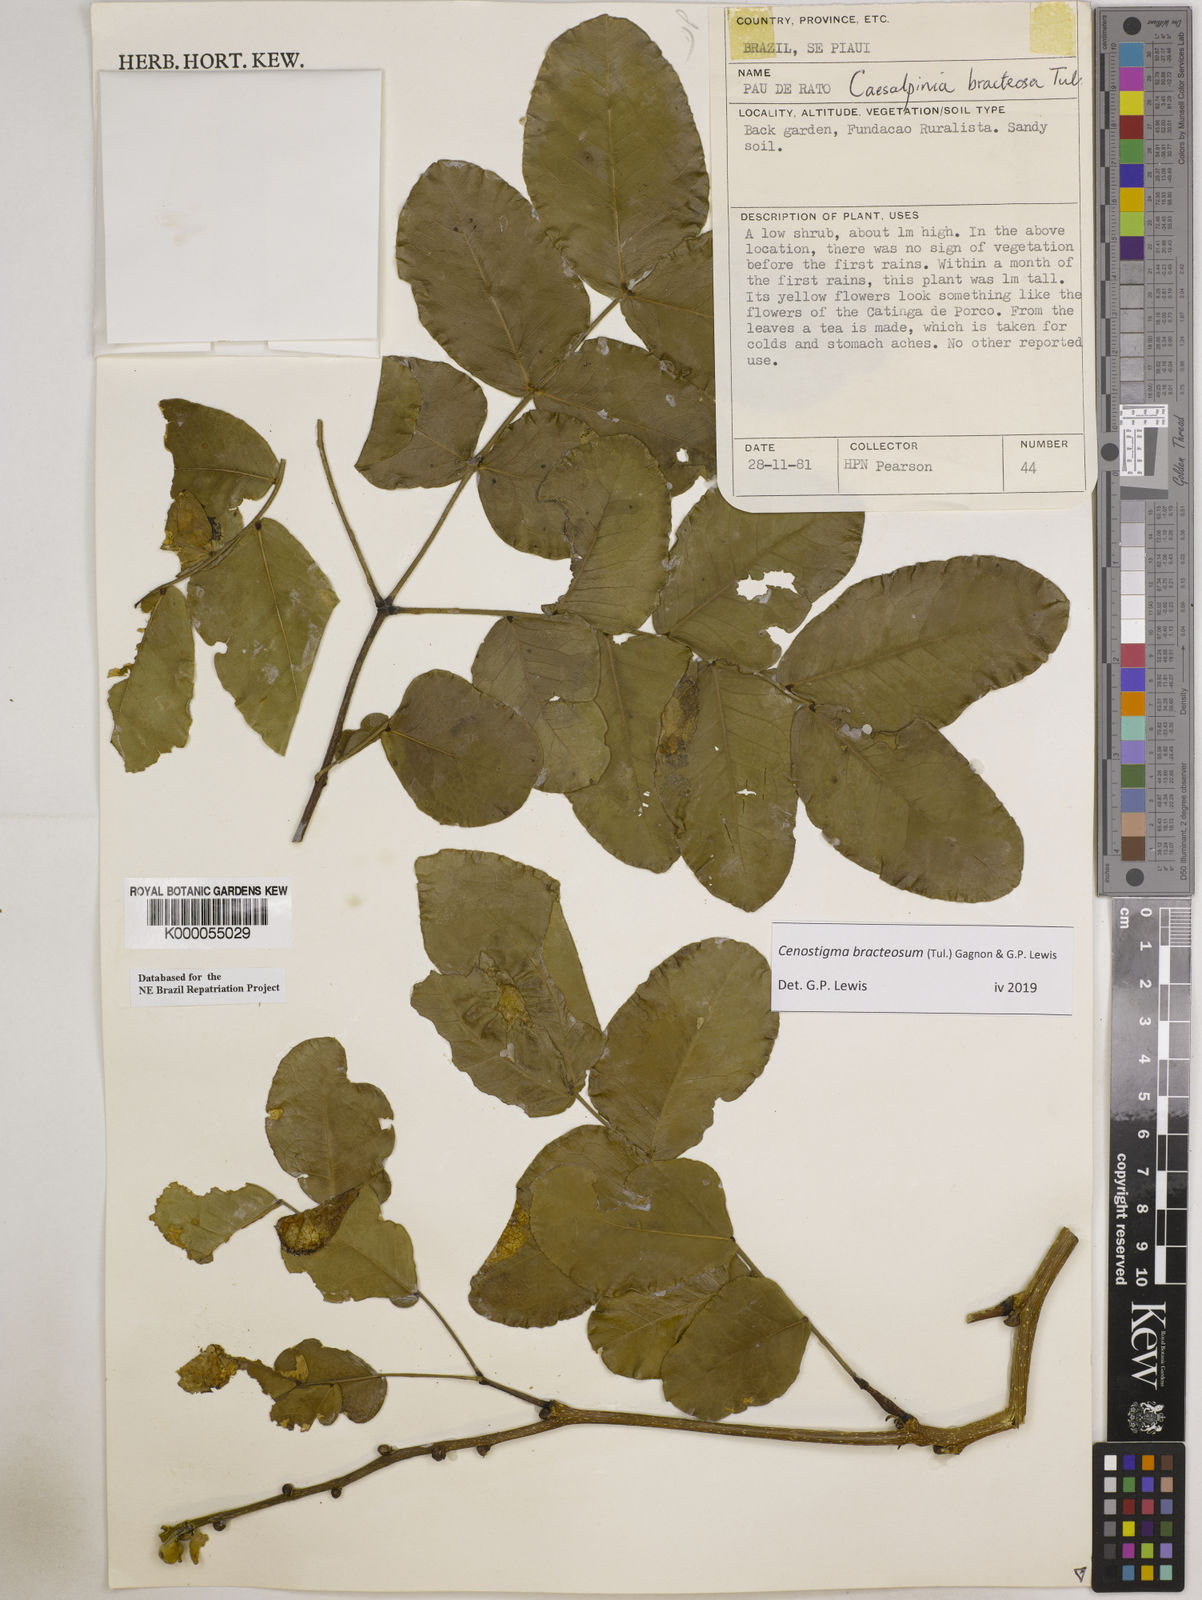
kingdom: Plantae
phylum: Tracheophyta
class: Magnoliopsida
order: Fabales
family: Fabaceae
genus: Cenostigma
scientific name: Cenostigma bracteosum
